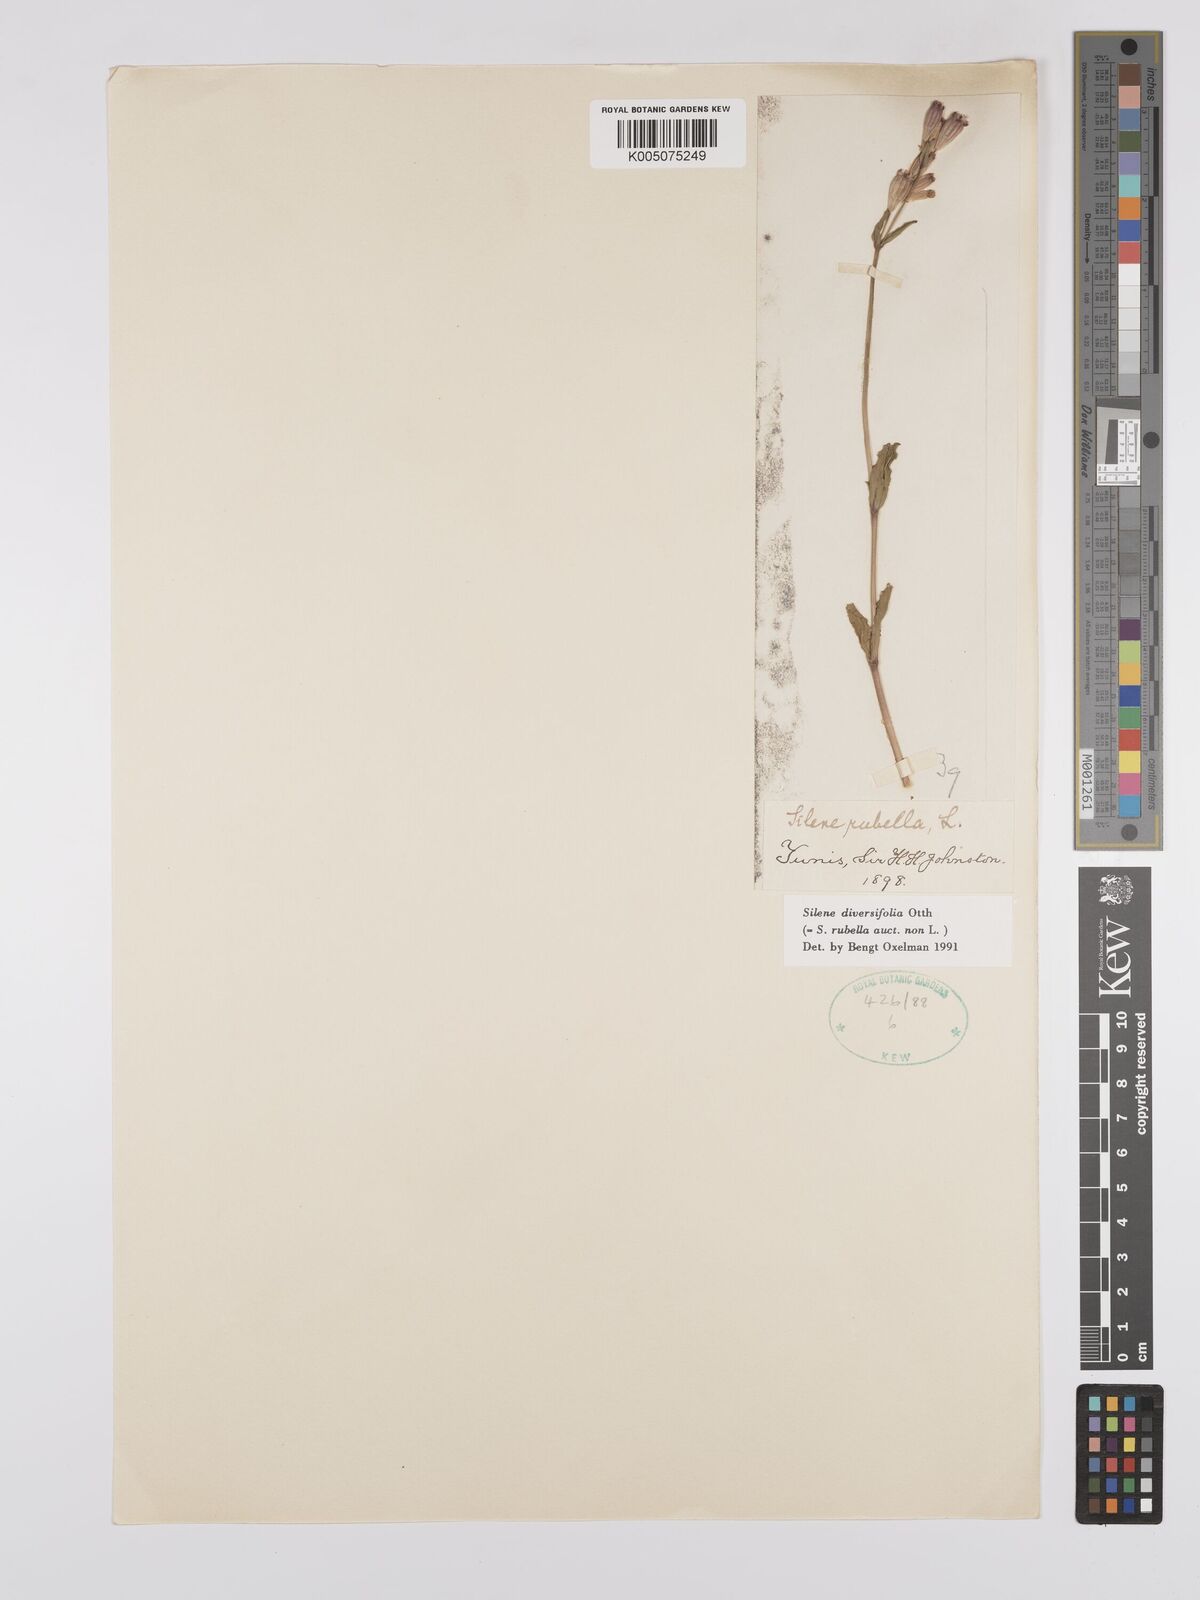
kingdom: Plantae
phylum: Tracheophyta
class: Magnoliopsida
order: Caryophyllales
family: Caryophyllaceae
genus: Silene
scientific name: Silene rubella
